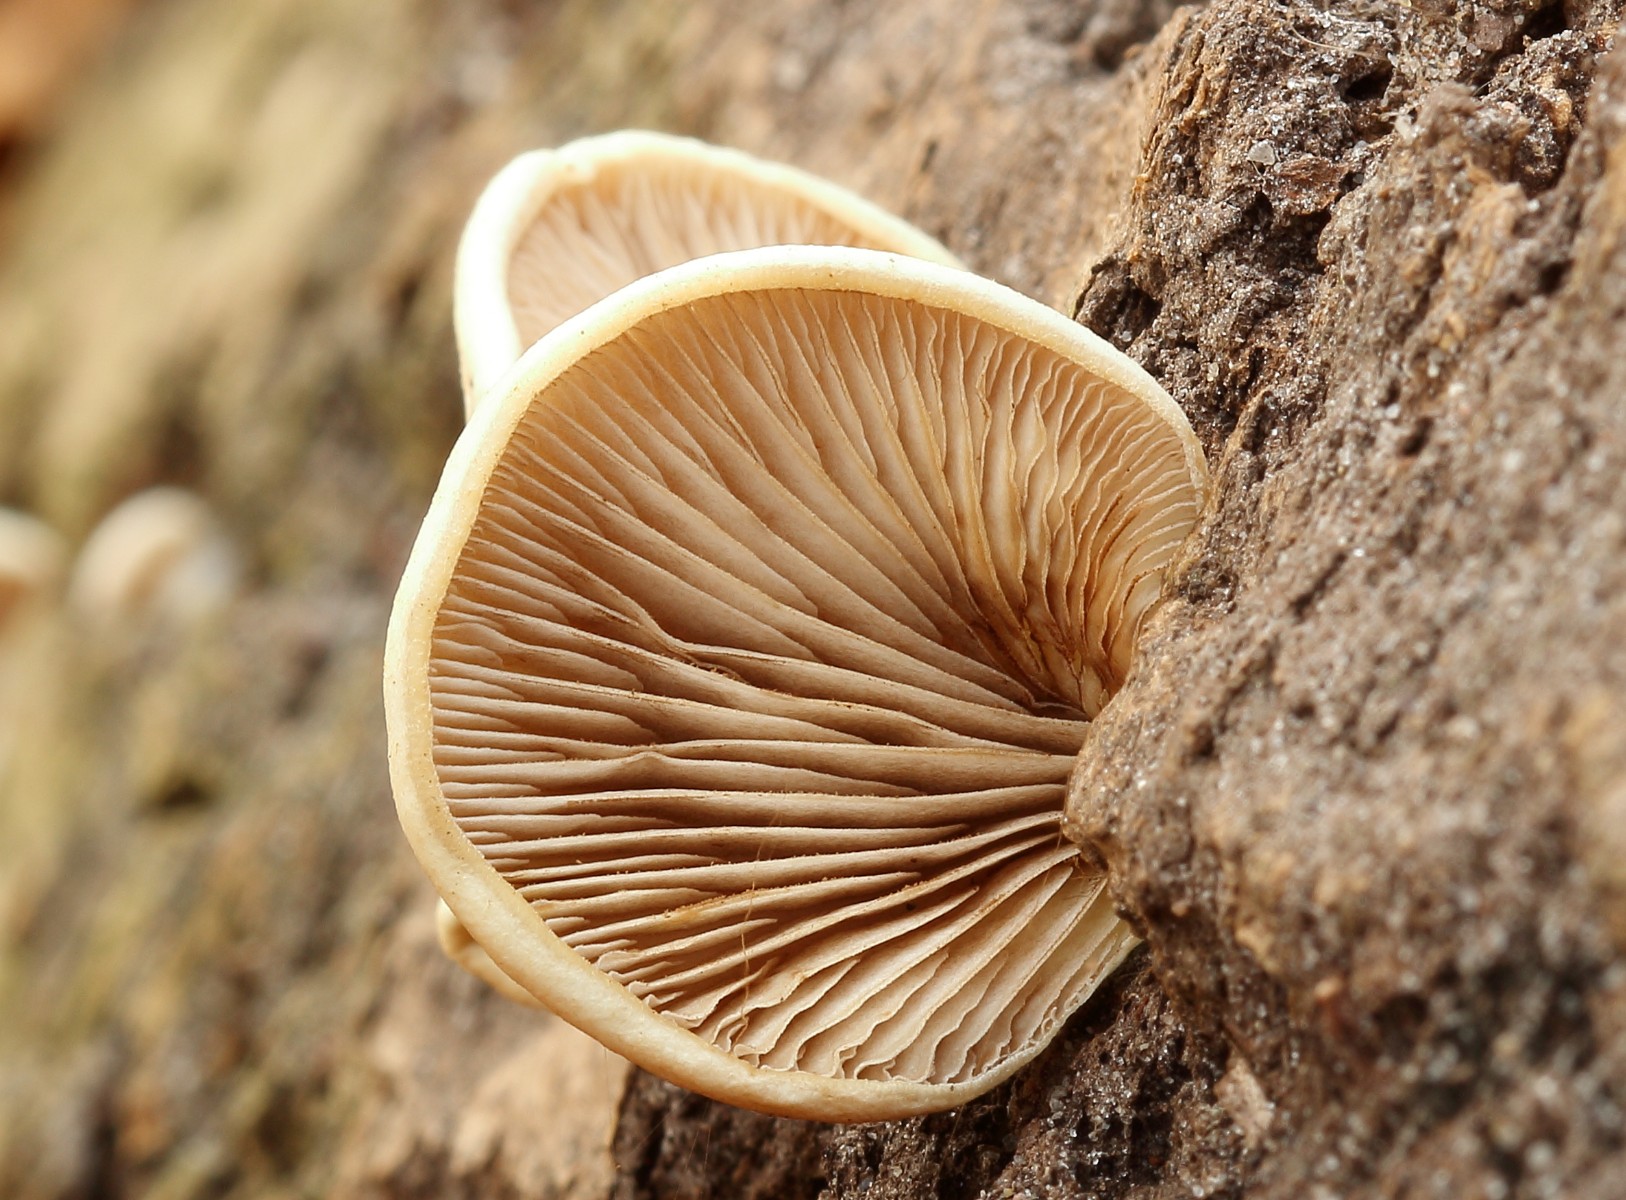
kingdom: Fungi
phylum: Basidiomycota
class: Agaricomycetes
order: Agaricales
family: Crepidotaceae
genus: Crepidotus
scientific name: Crepidotus mollis
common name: blød muslingesvamp
